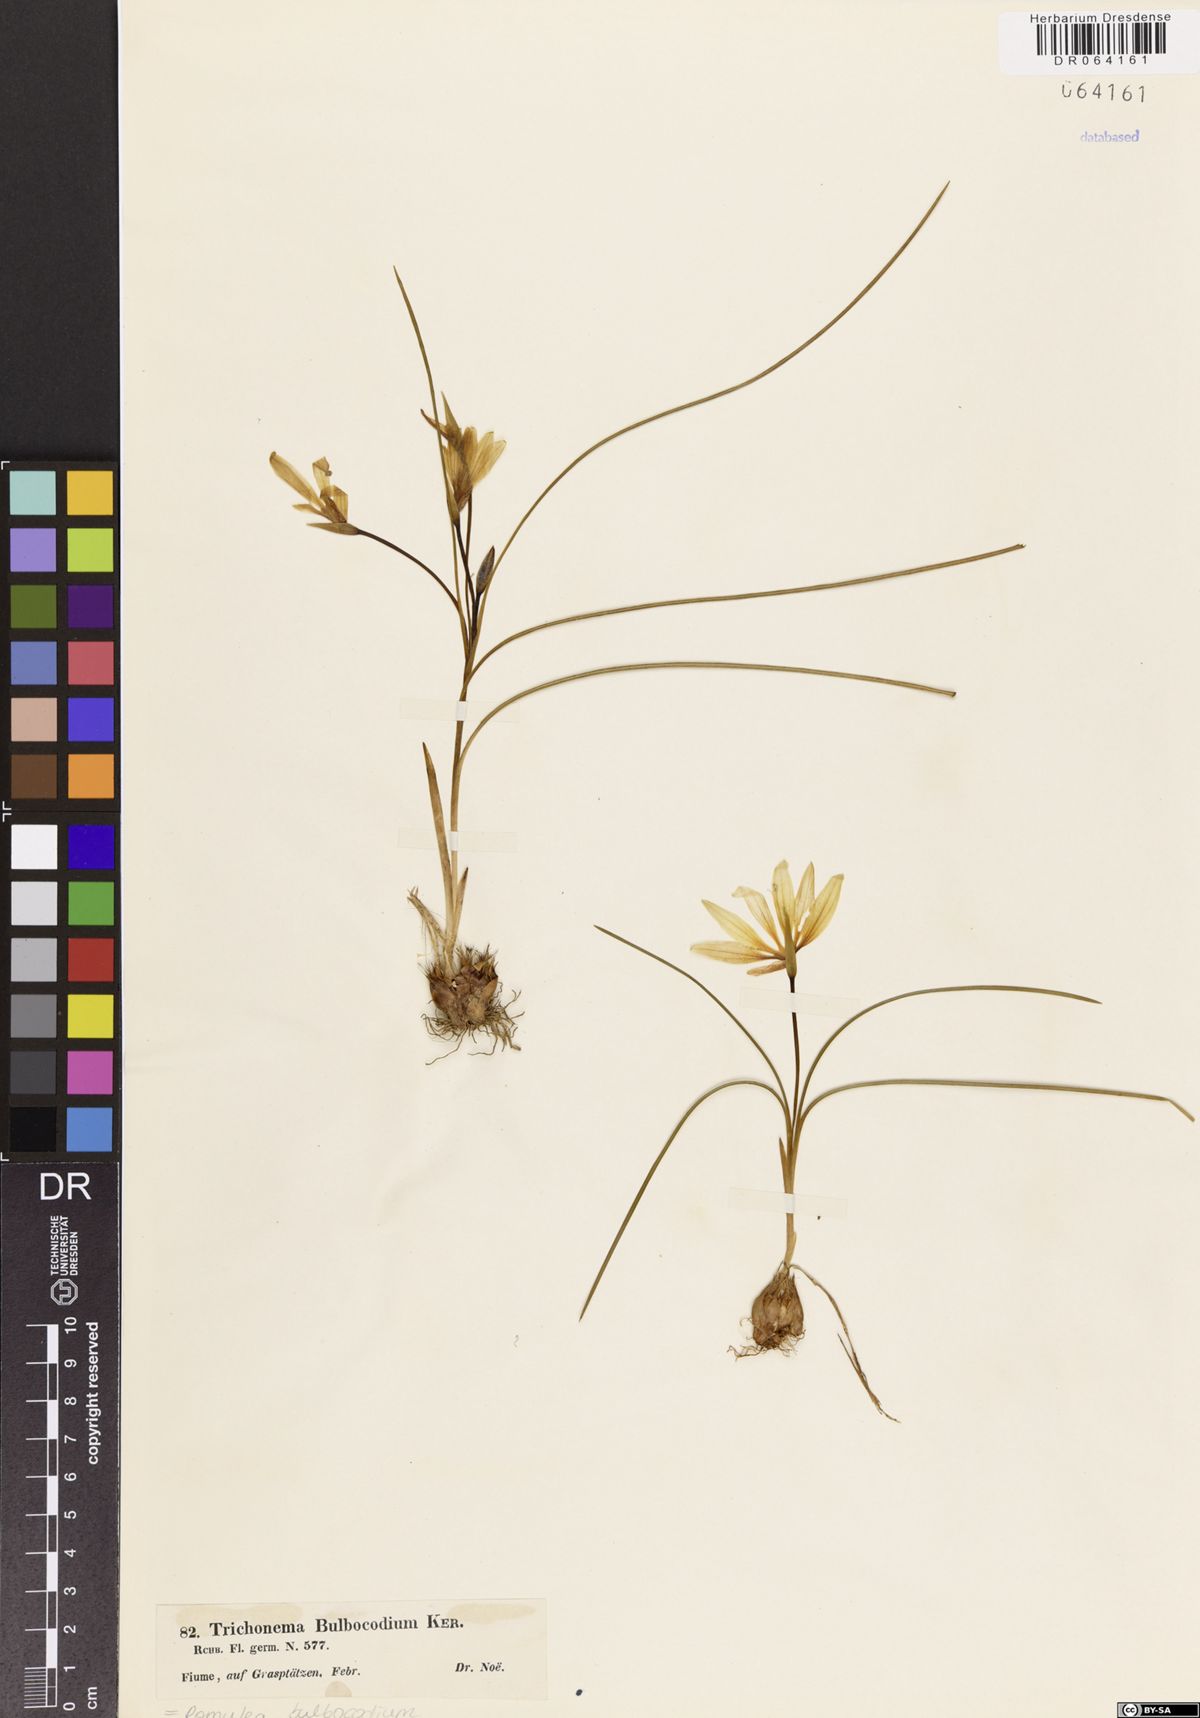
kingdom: Plantae
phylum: Tracheophyta
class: Liliopsida
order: Asparagales
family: Iridaceae
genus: Romulea
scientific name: Romulea bulbocodium
